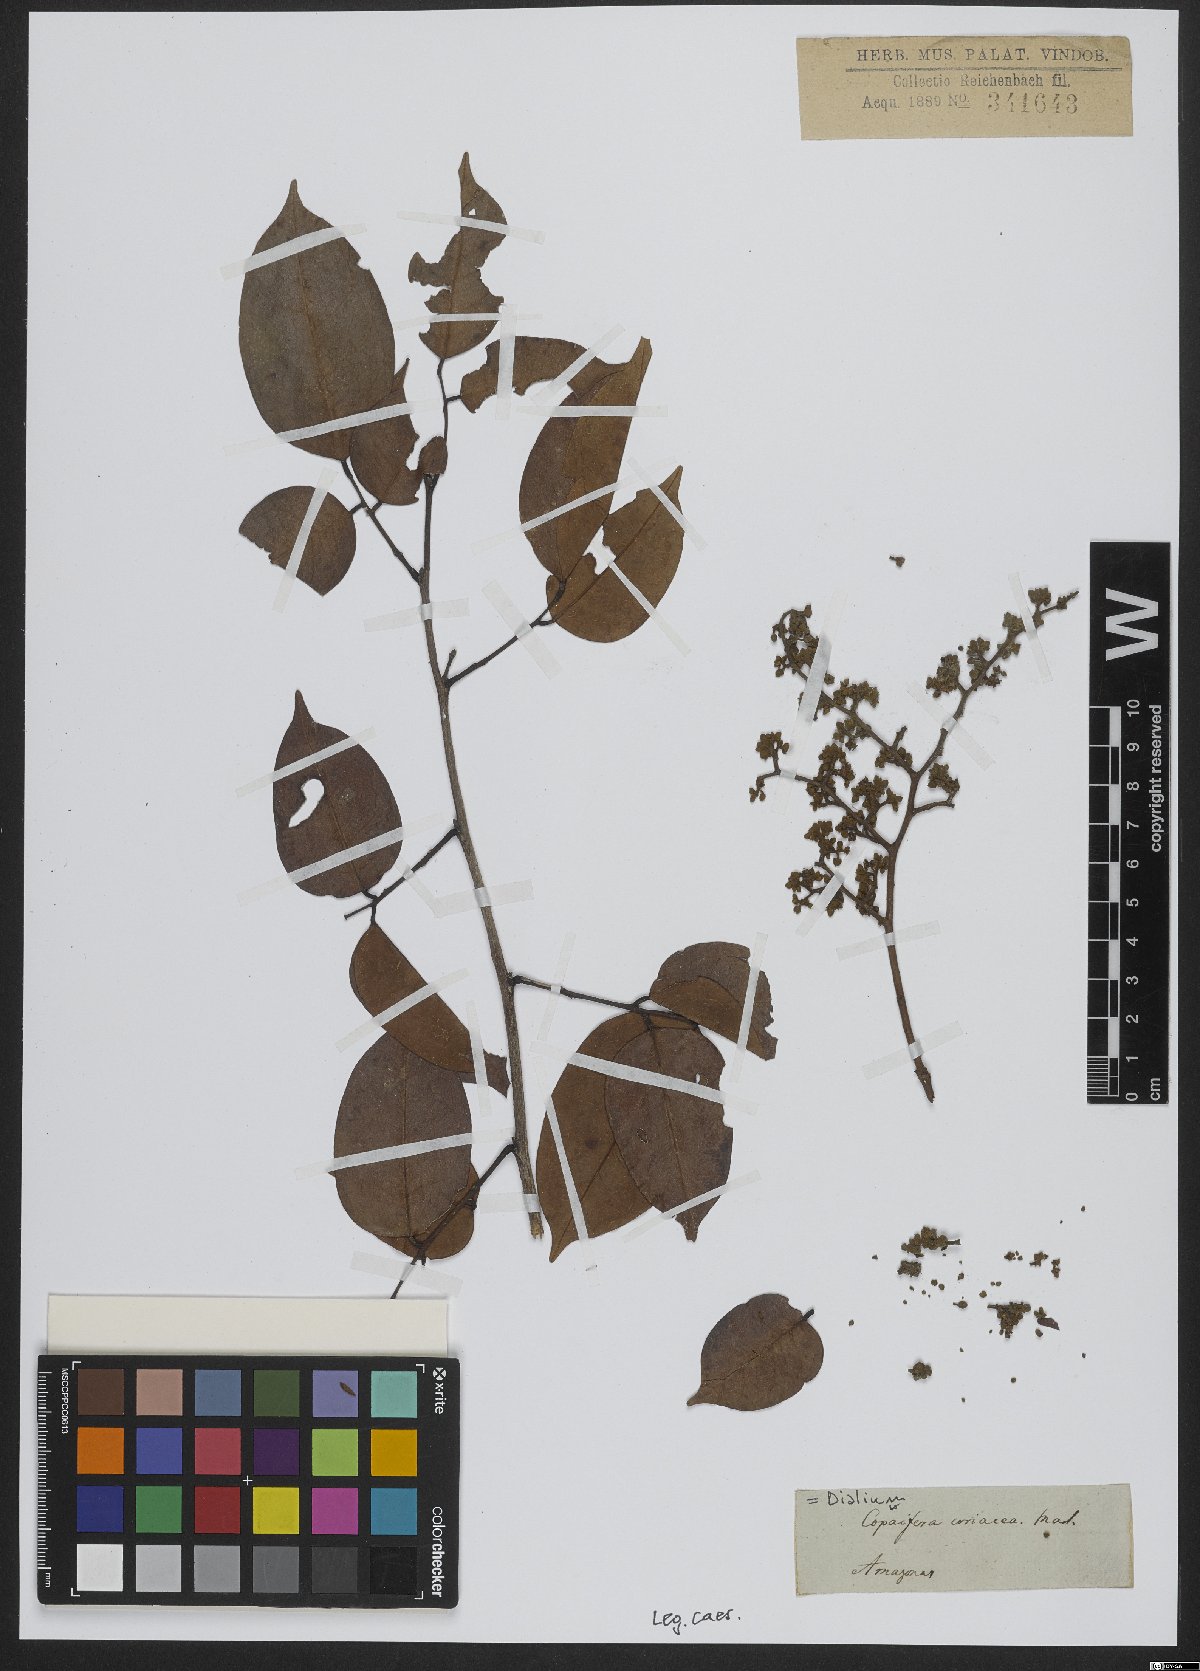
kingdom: Plantae
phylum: Tracheophyta
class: Magnoliopsida
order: Fabales
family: Fabaceae
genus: Dialium
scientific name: Dialium
